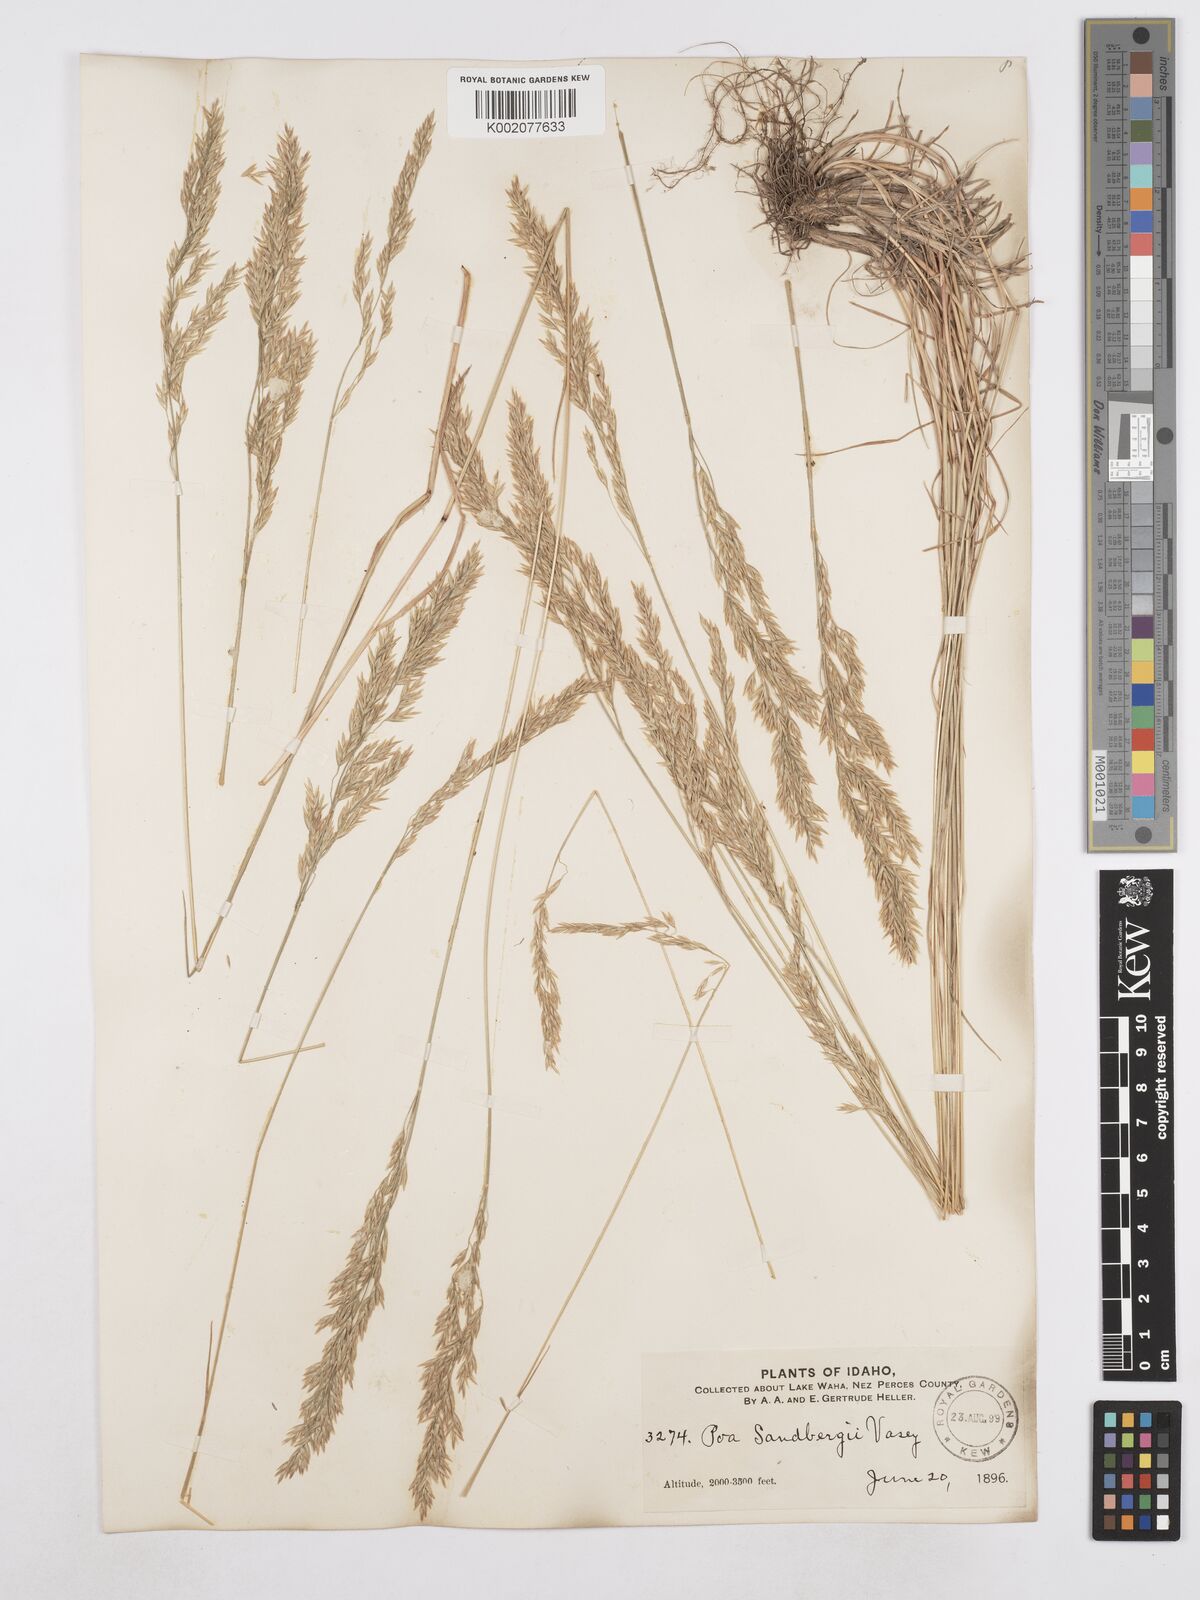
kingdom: Plantae
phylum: Tracheophyta
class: Liliopsida
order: Poales
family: Poaceae
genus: Poa
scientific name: Poa secunda
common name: Sandberg bluegrass
